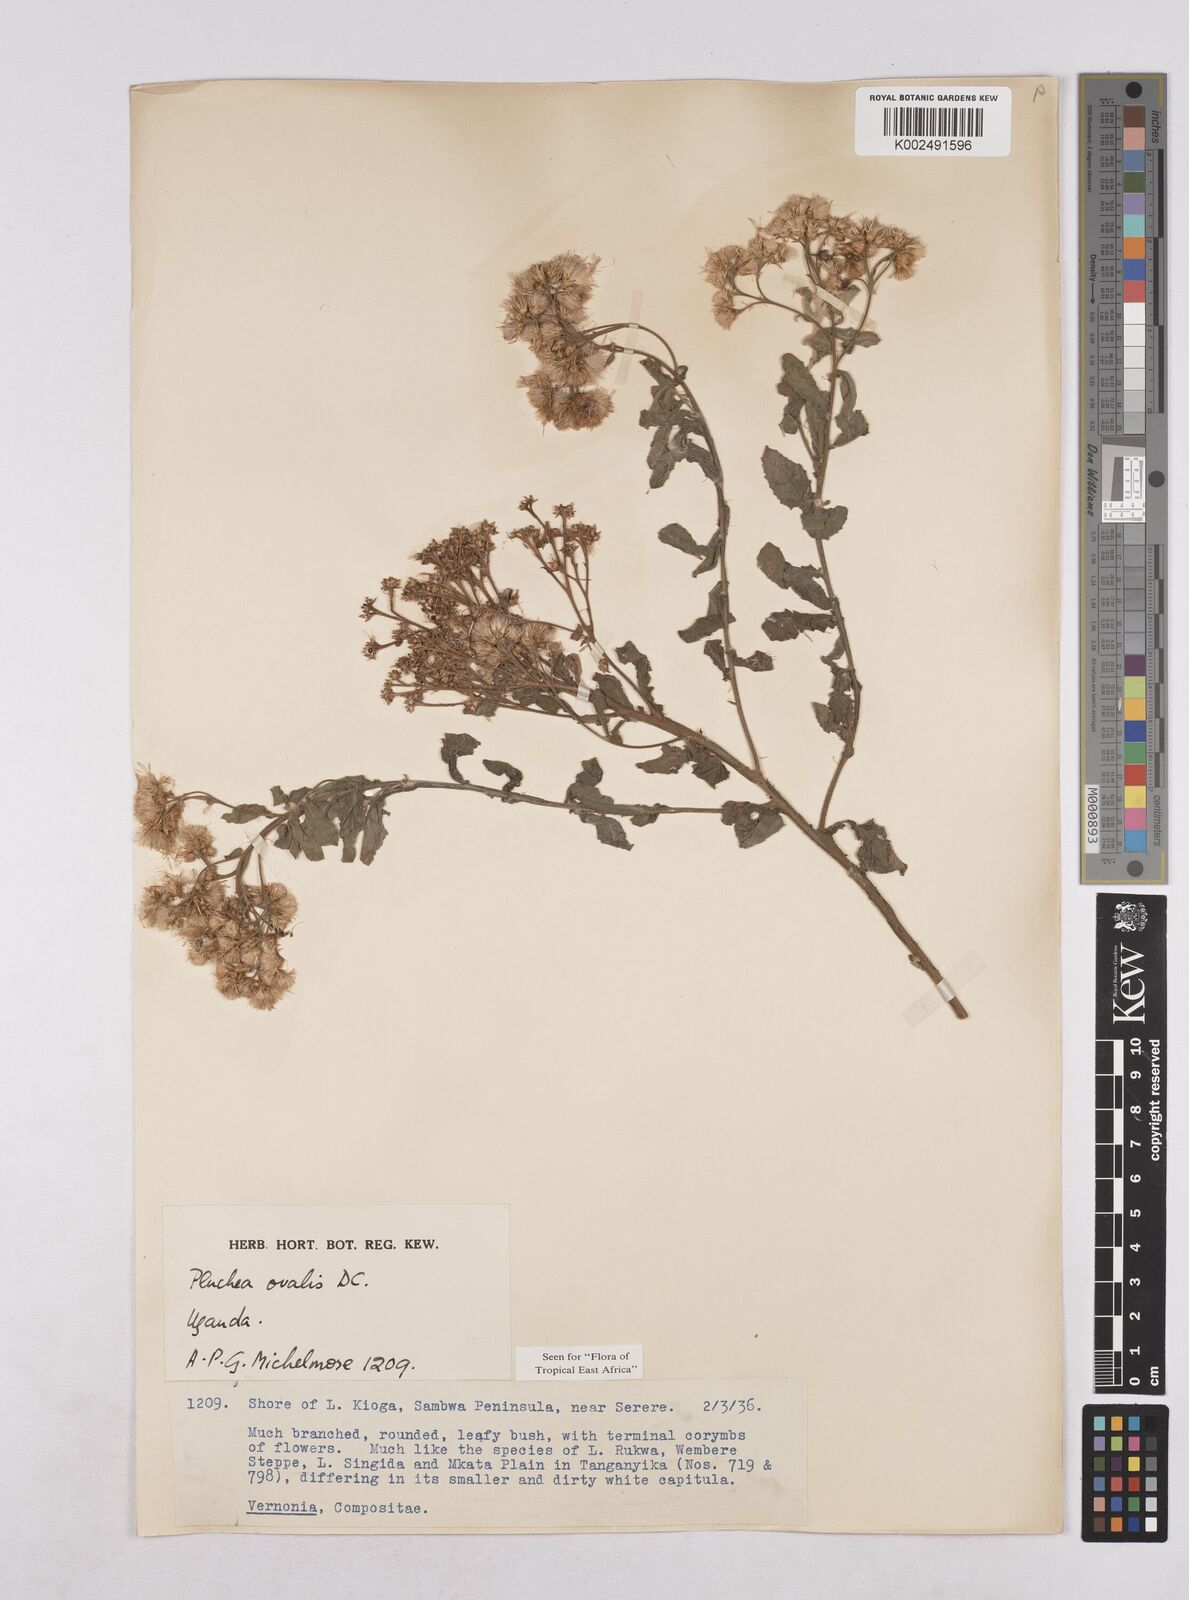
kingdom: Plantae
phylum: Tracheophyta
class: Magnoliopsida
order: Asterales
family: Asteraceae
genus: Pluchea
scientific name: Pluchea ovalis
